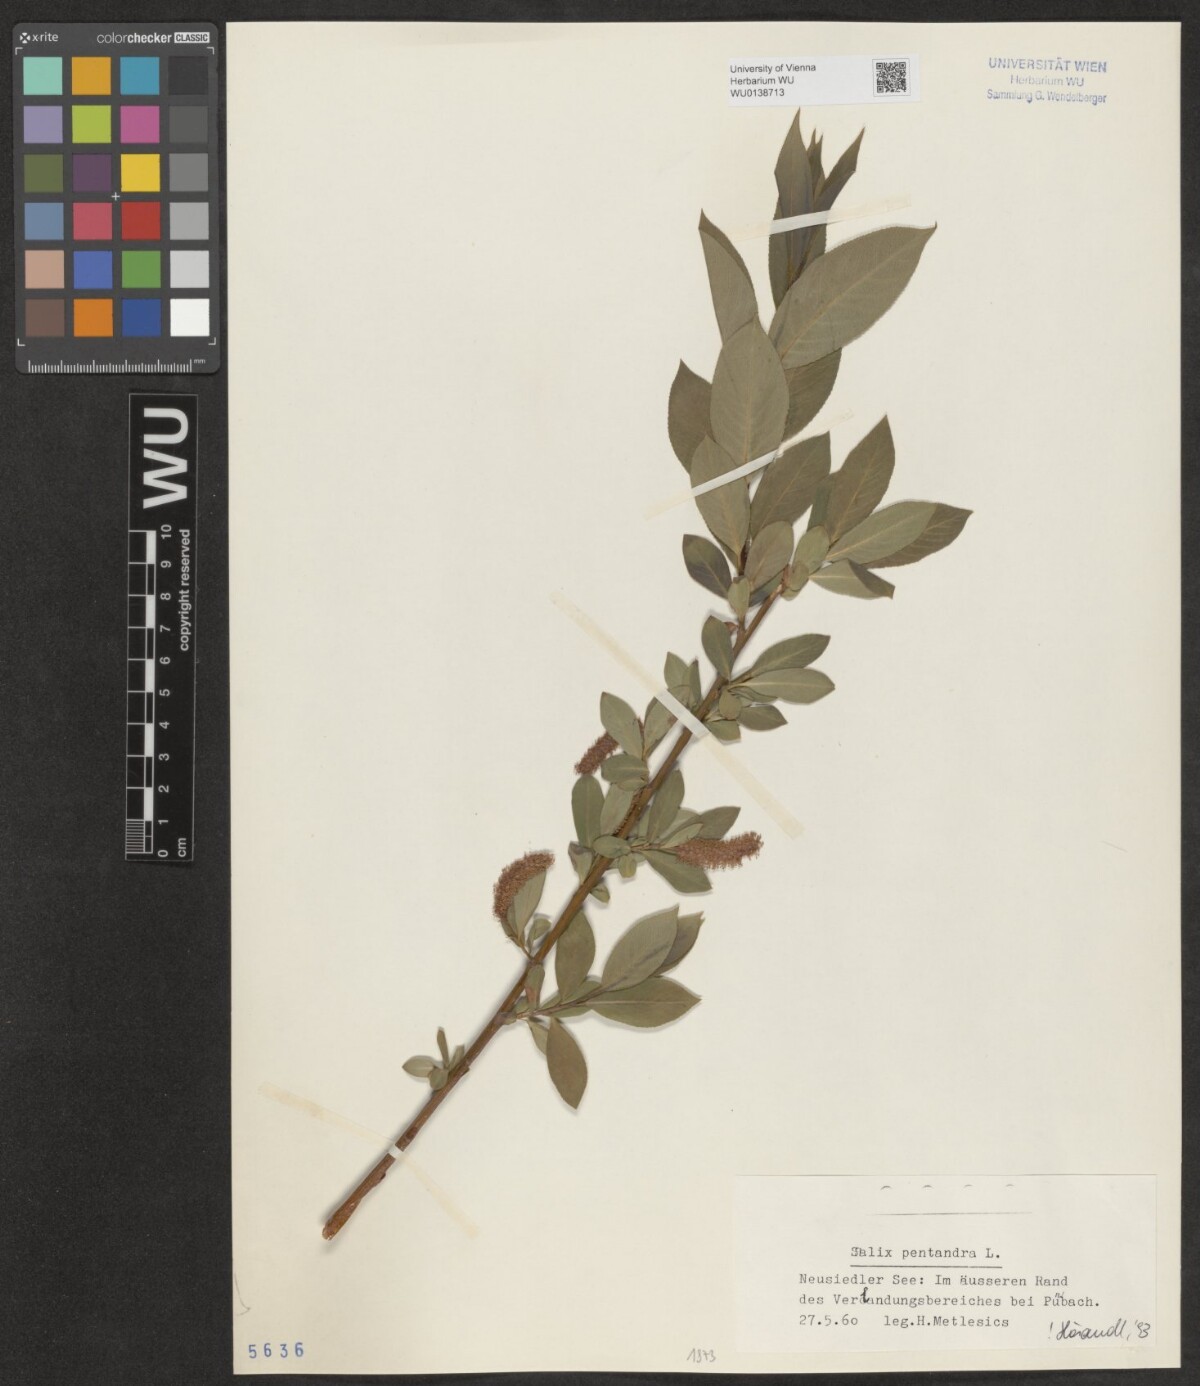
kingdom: Plantae
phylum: Tracheophyta
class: Magnoliopsida
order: Malpighiales
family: Salicaceae
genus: Salix
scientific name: Salix pentandra
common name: Bay willow
